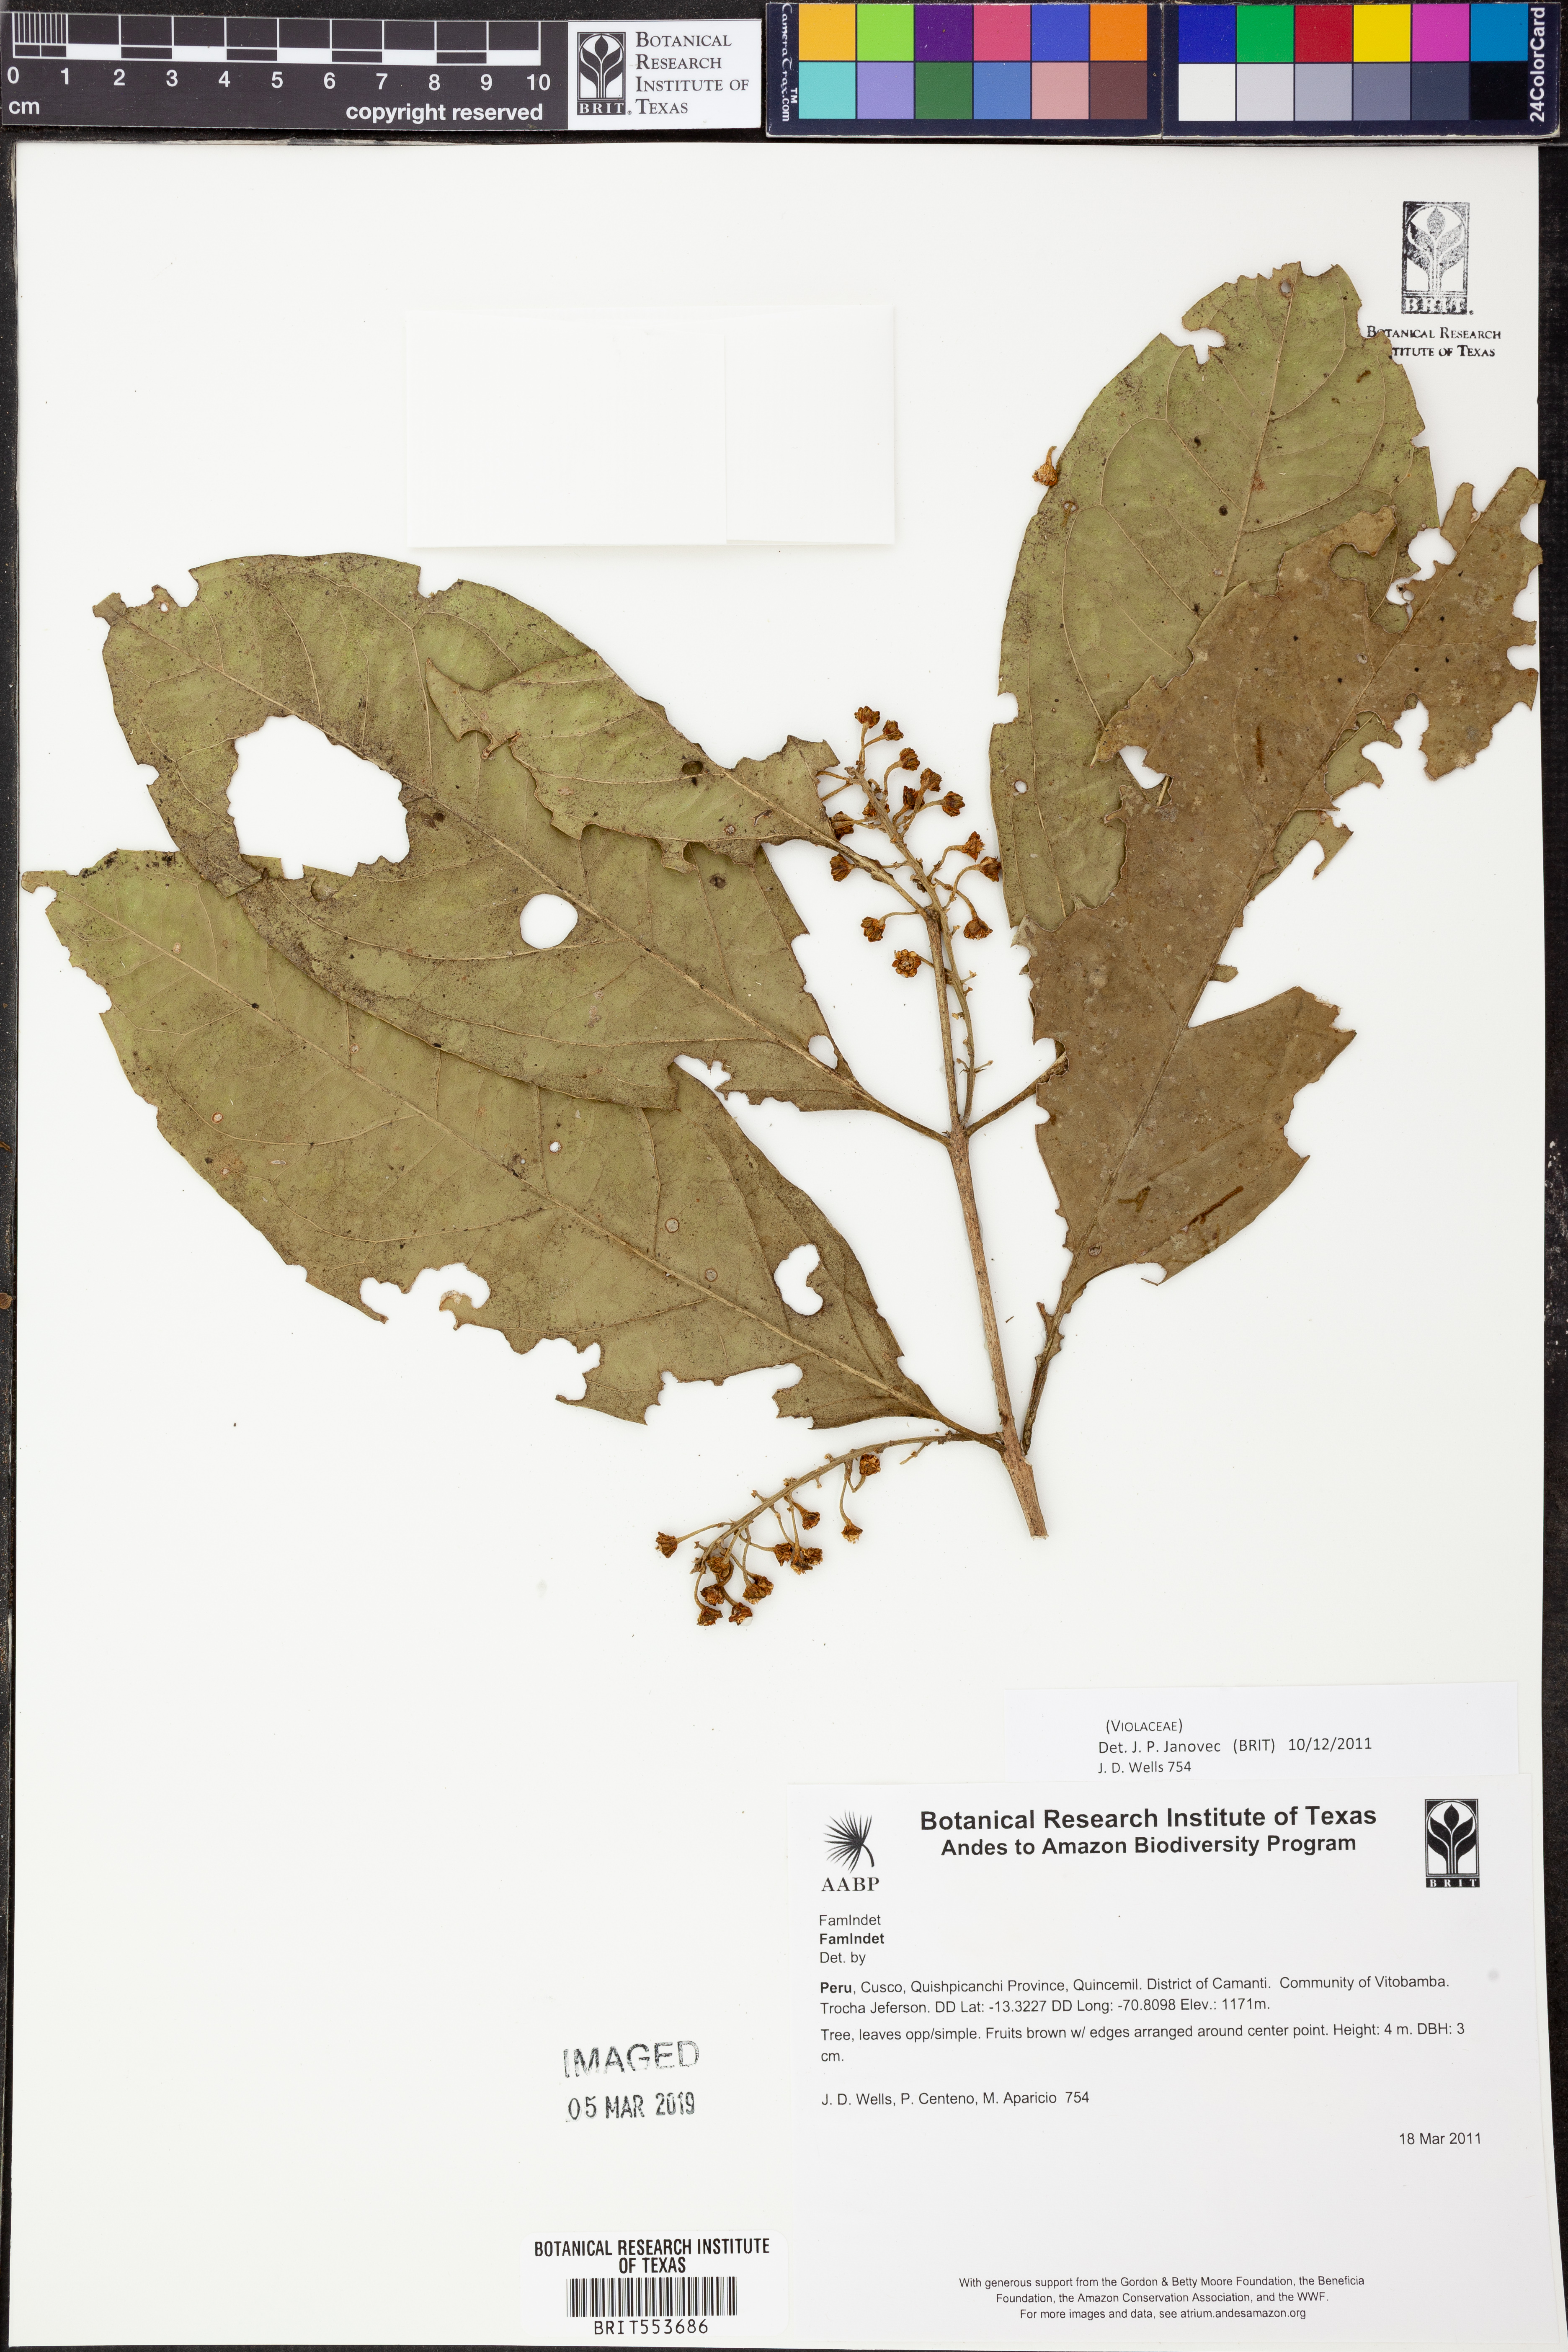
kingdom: Plantae
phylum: Tracheophyta
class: Magnoliopsida
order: Malpighiales
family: Violaceae
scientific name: Violaceae
